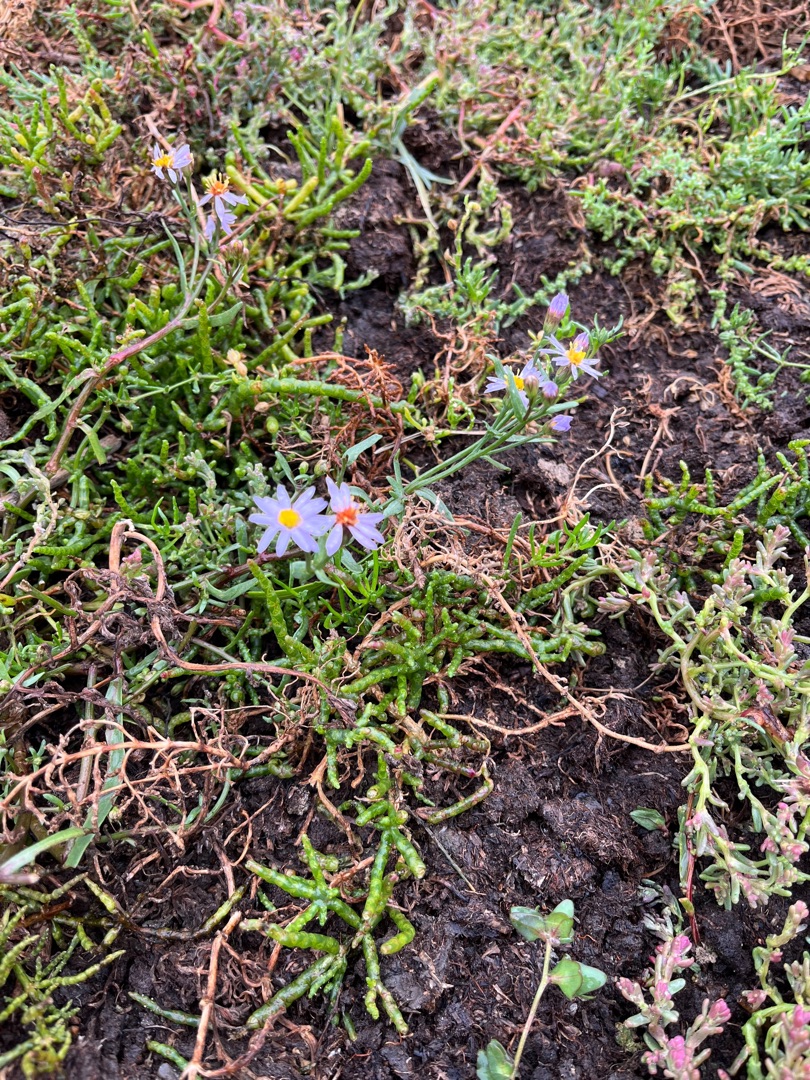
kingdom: Plantae
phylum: Tracheophyta
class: Magnoliopsida
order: Asterales
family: Asteraceae
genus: Tripolium
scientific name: Tripolium pannonicum
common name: Strandasters
